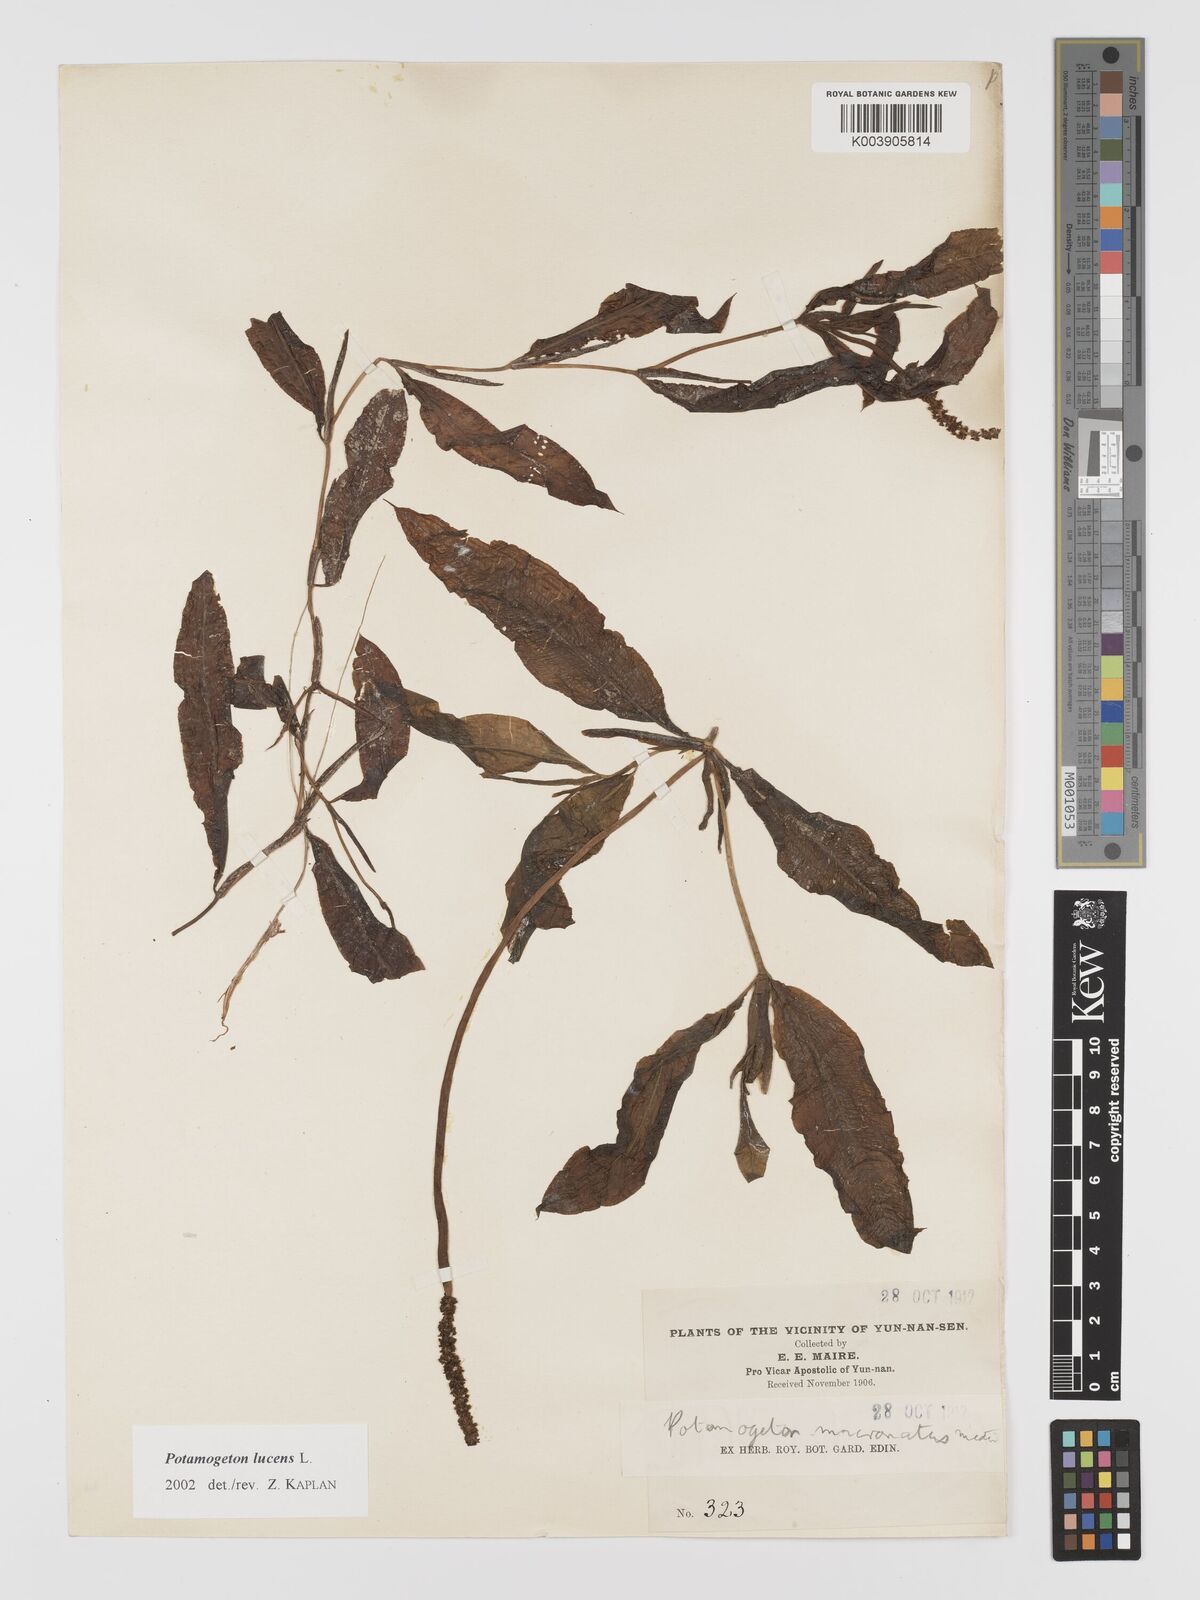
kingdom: Plantae
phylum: Tracheophyta
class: Liliopsida
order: Alismatales
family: Potamogetonaceae
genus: Potamogeton
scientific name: Potamogeton lucens
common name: Shining pondweed
